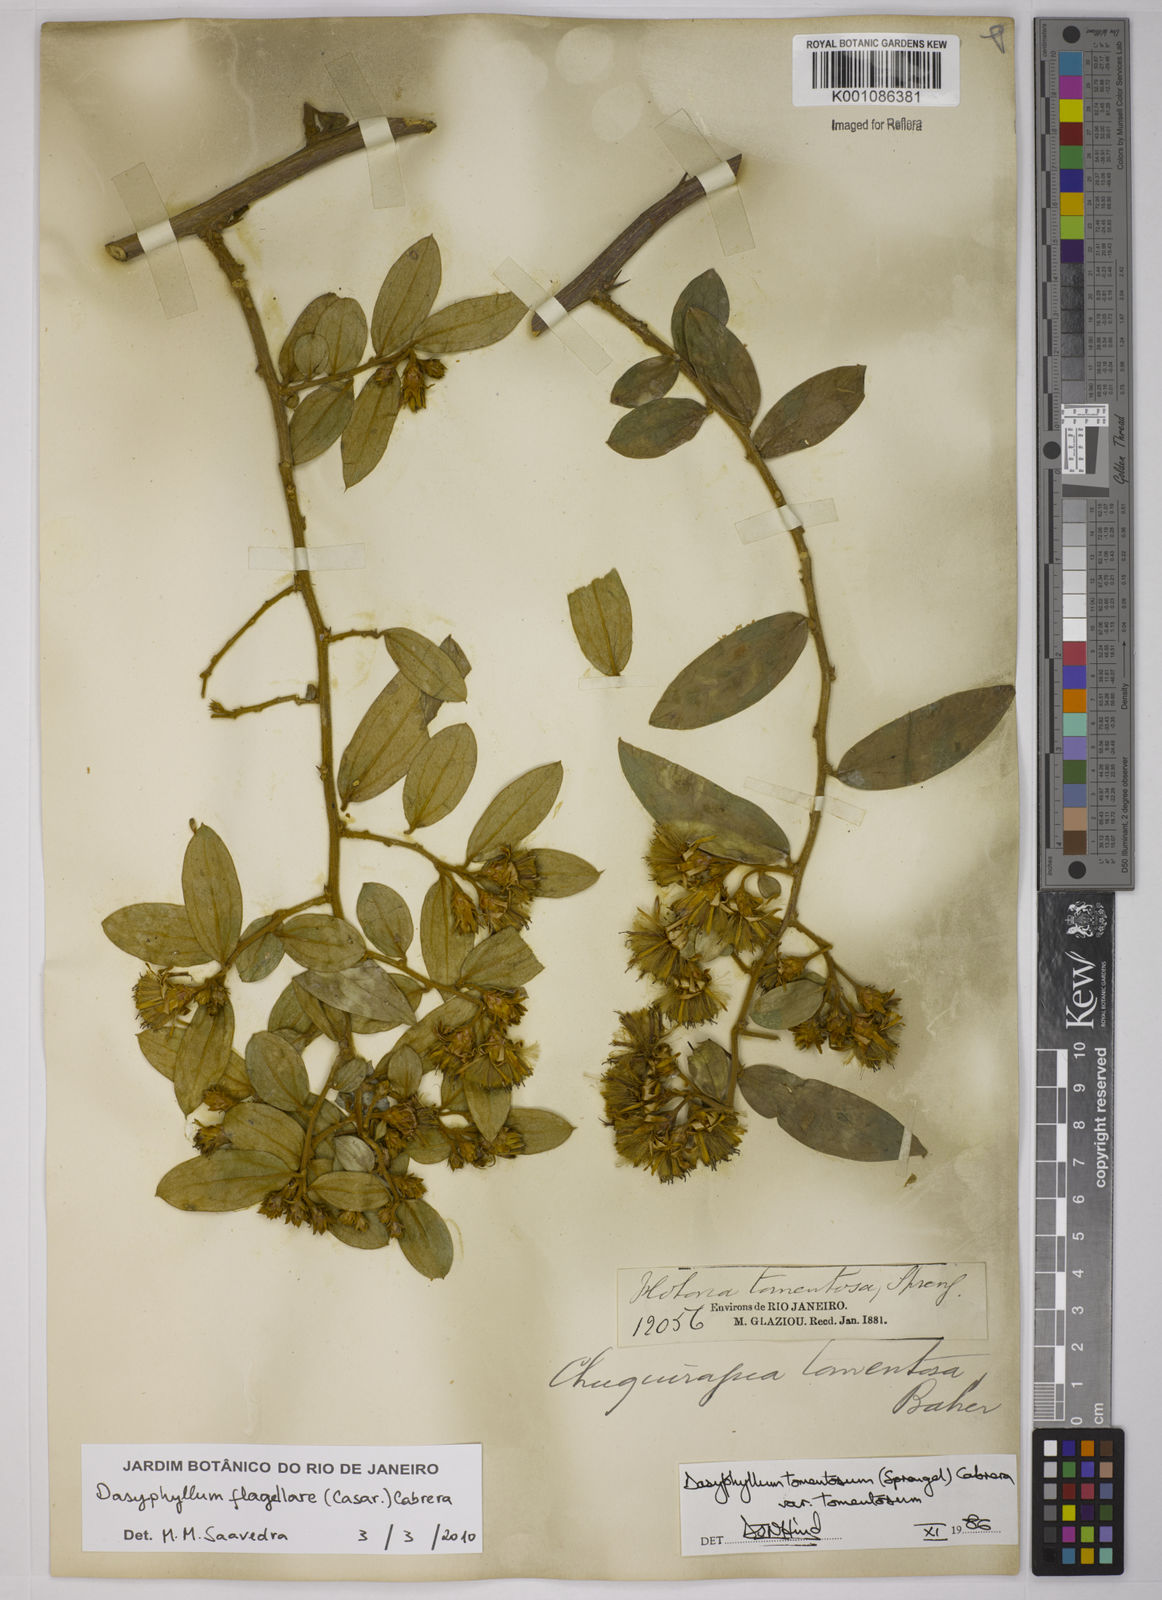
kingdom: Plantae
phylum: Tracheophyta
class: Magnoliopsida
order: Asterales
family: Asteraceae
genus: Dasyphyllum
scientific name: Dasyphyllum flagellare
